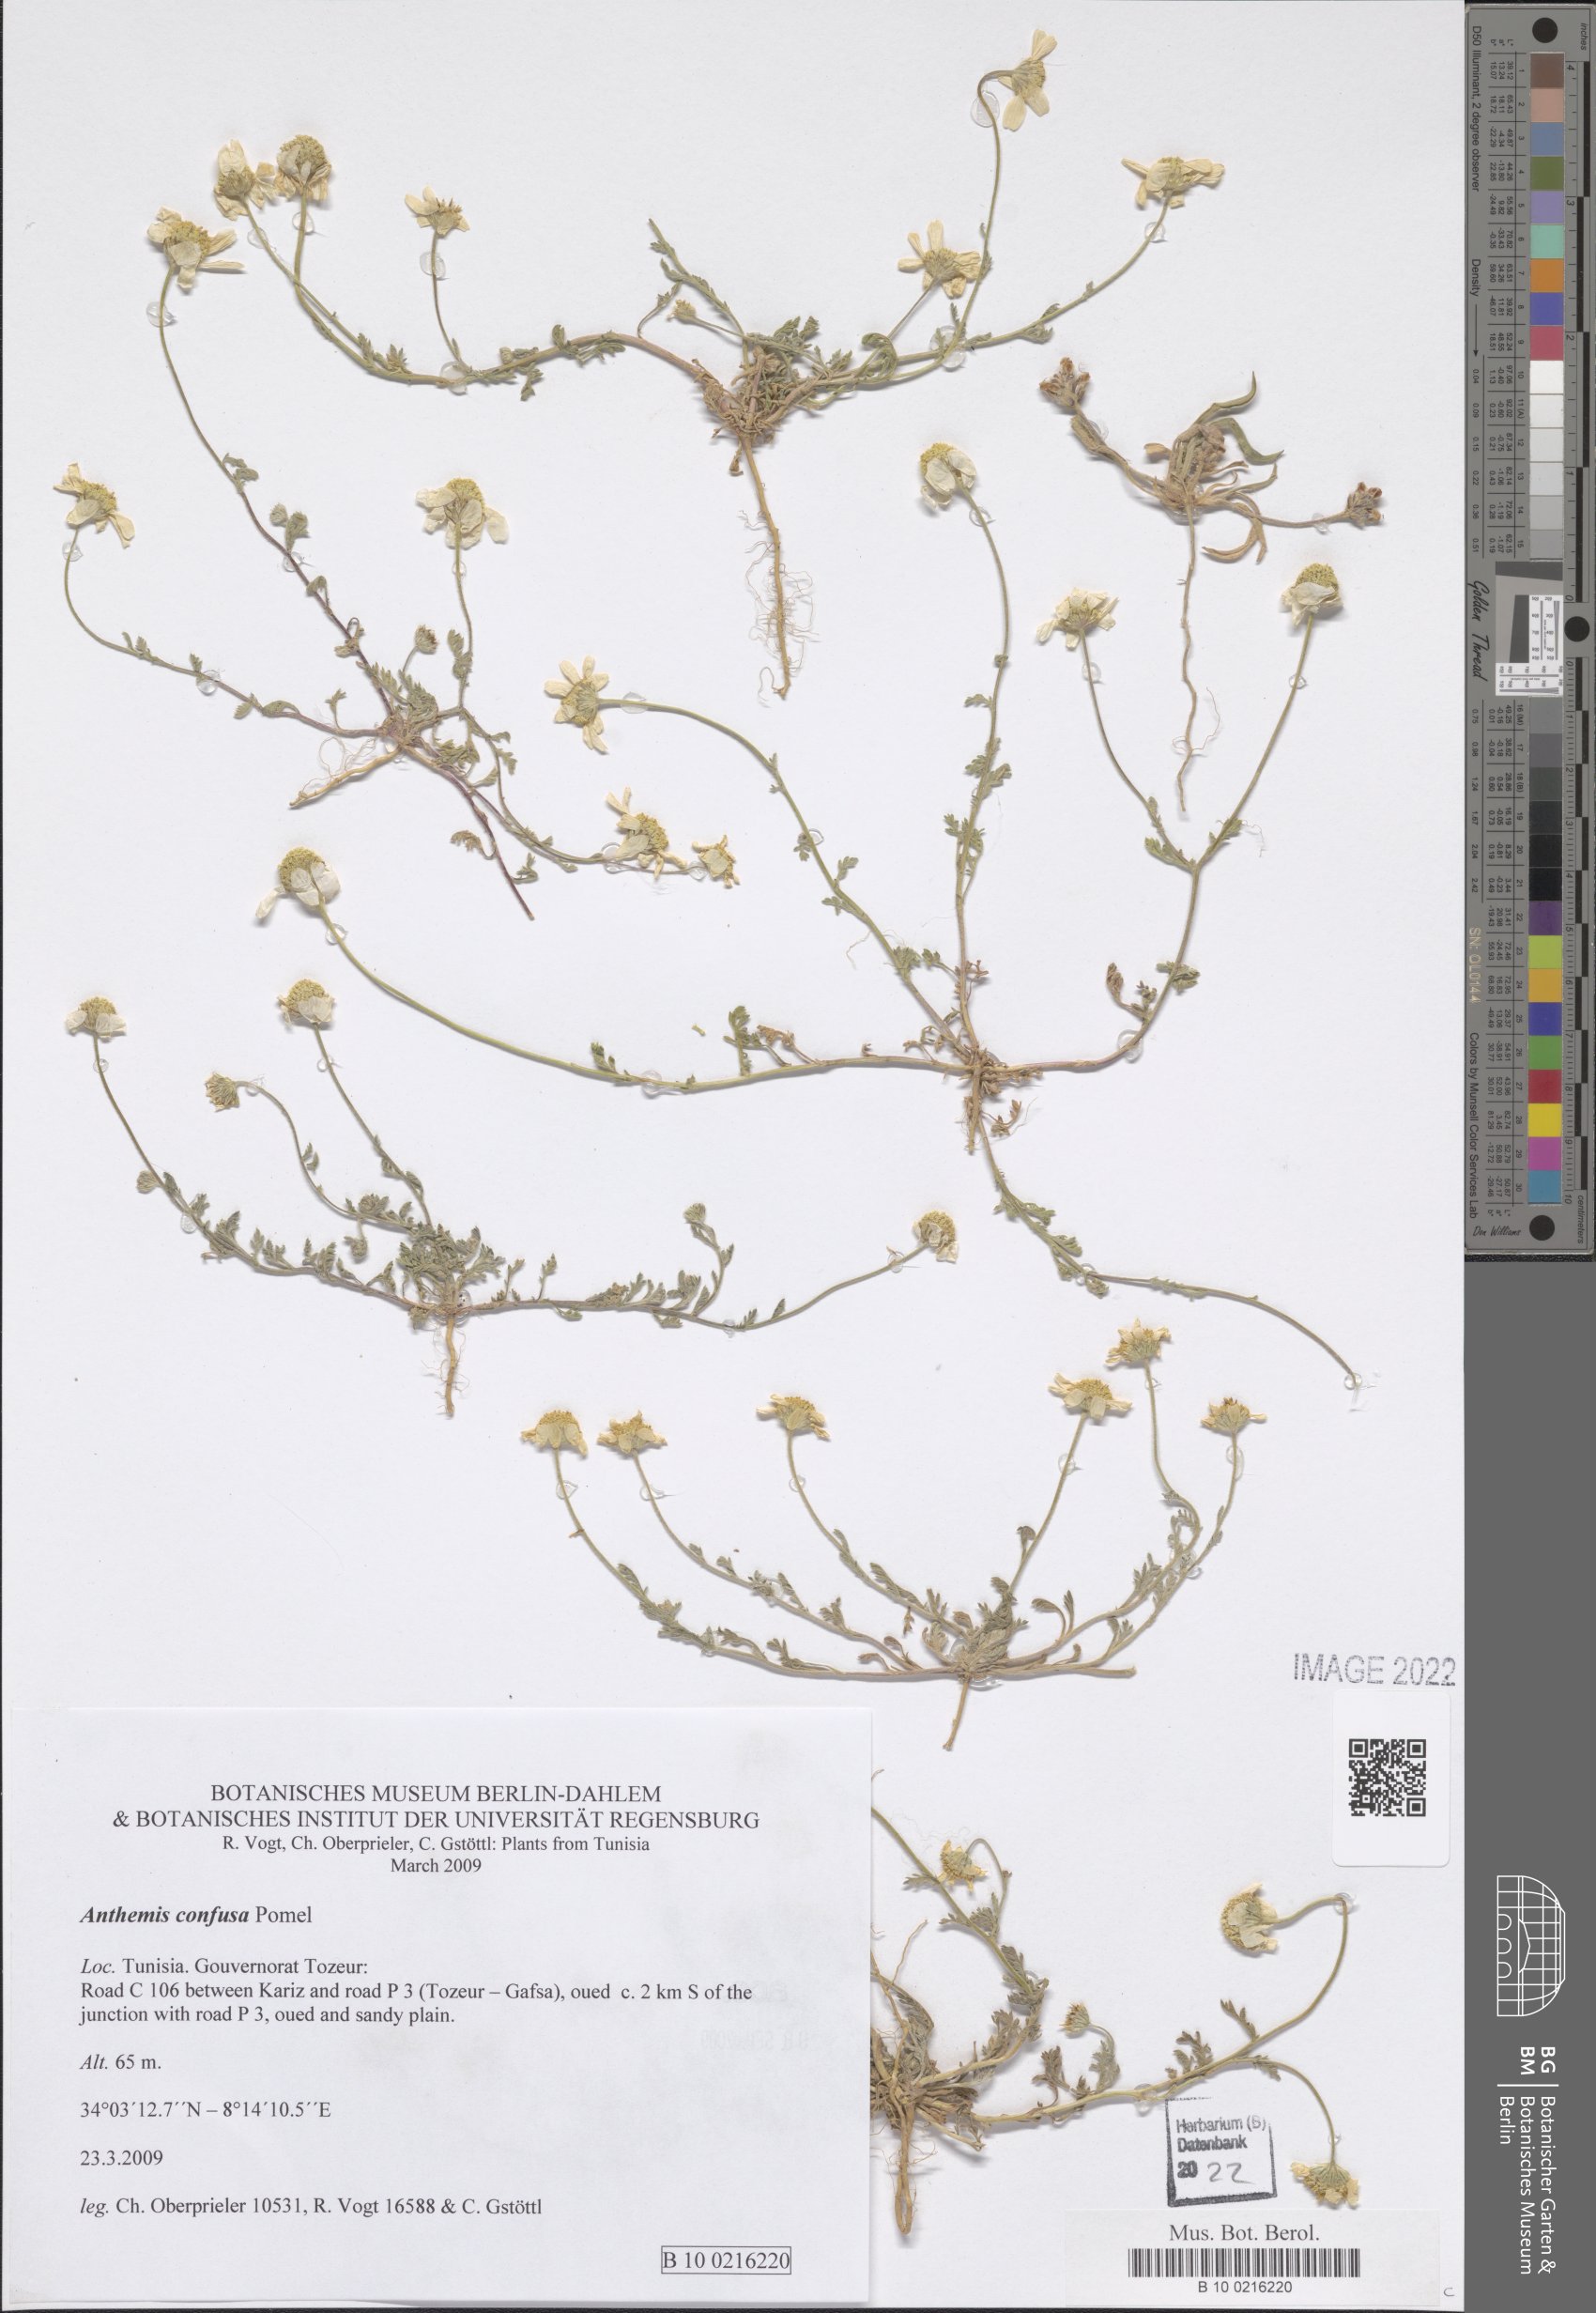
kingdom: Plantae
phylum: Tracheophyta
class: Magnoliopsida
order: Asterales
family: Asteraceae
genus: Anthemis
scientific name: Anthemis confusa
